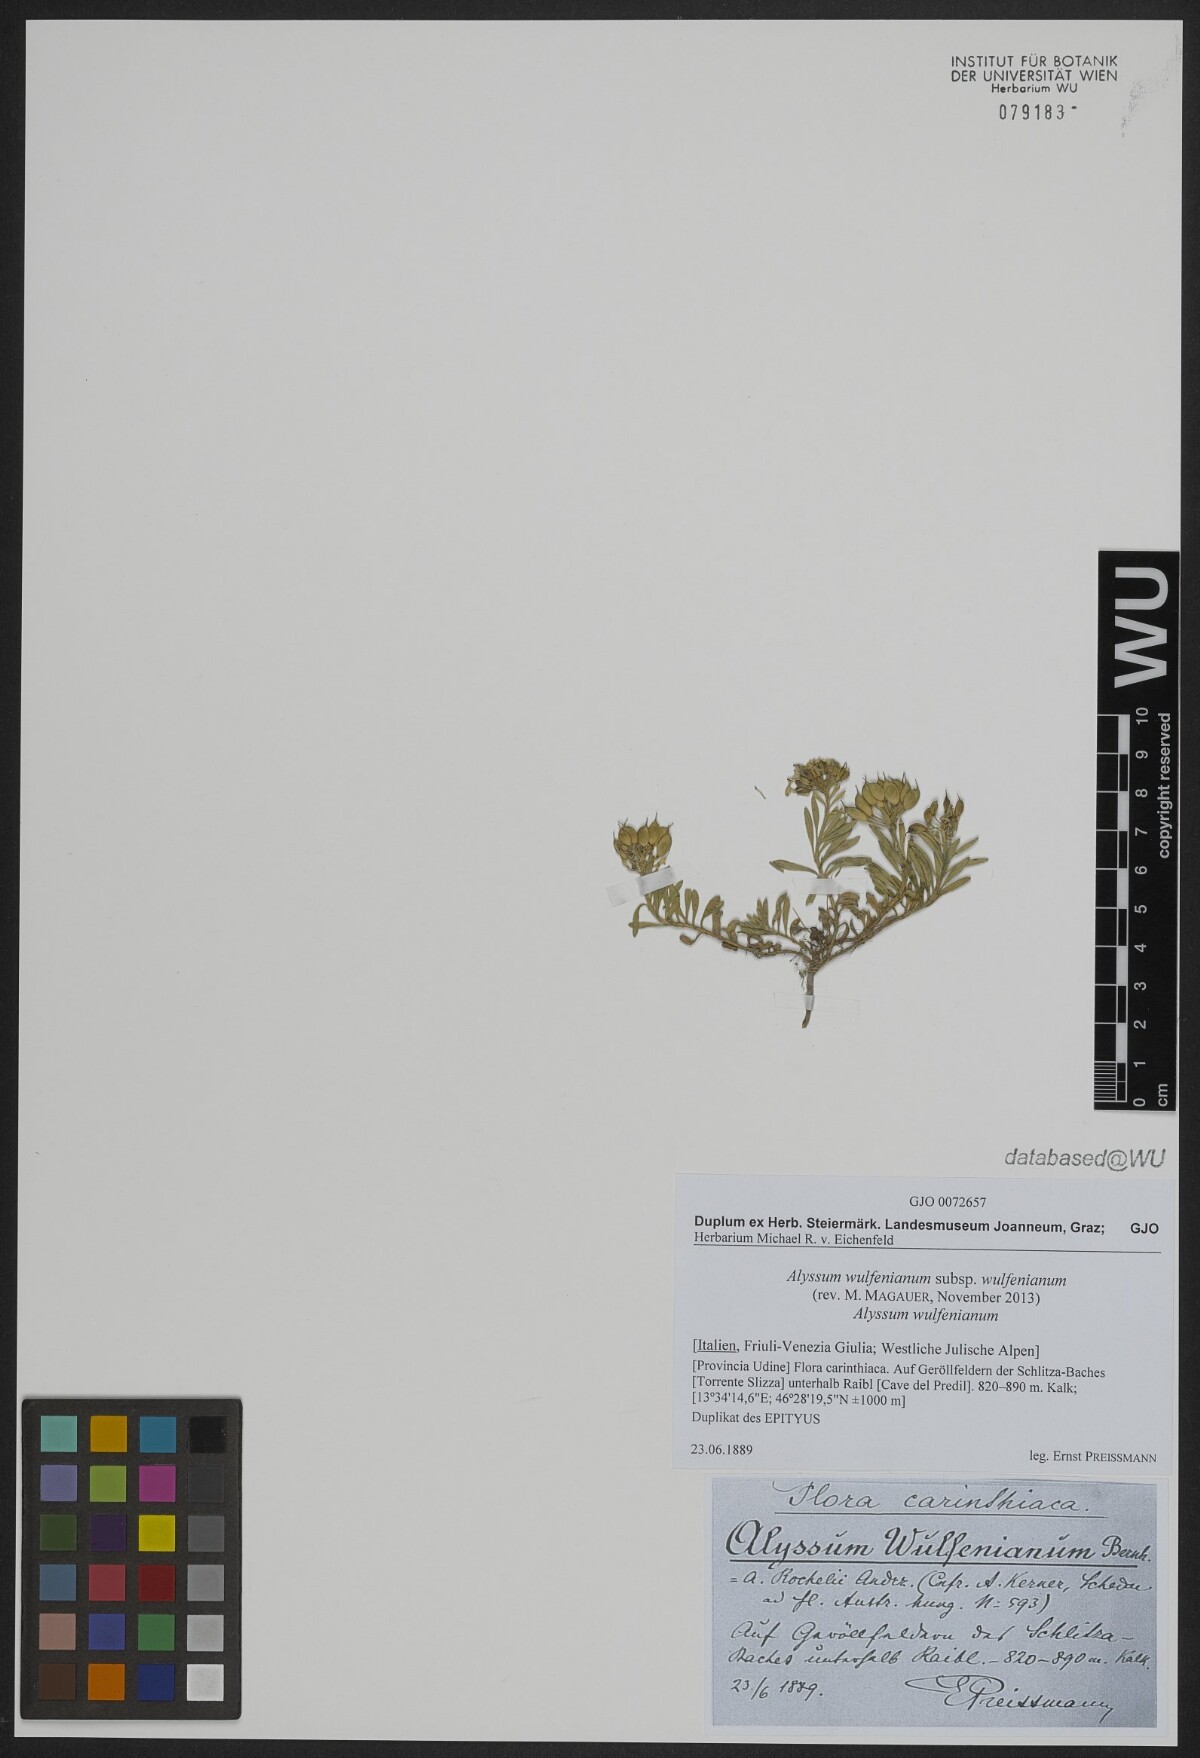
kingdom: Plantae
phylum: Tracheophyta
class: Magnoliopsida
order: Brassicales
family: Brassicaceae
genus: Alyssum
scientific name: Alyssum wulfenianum
